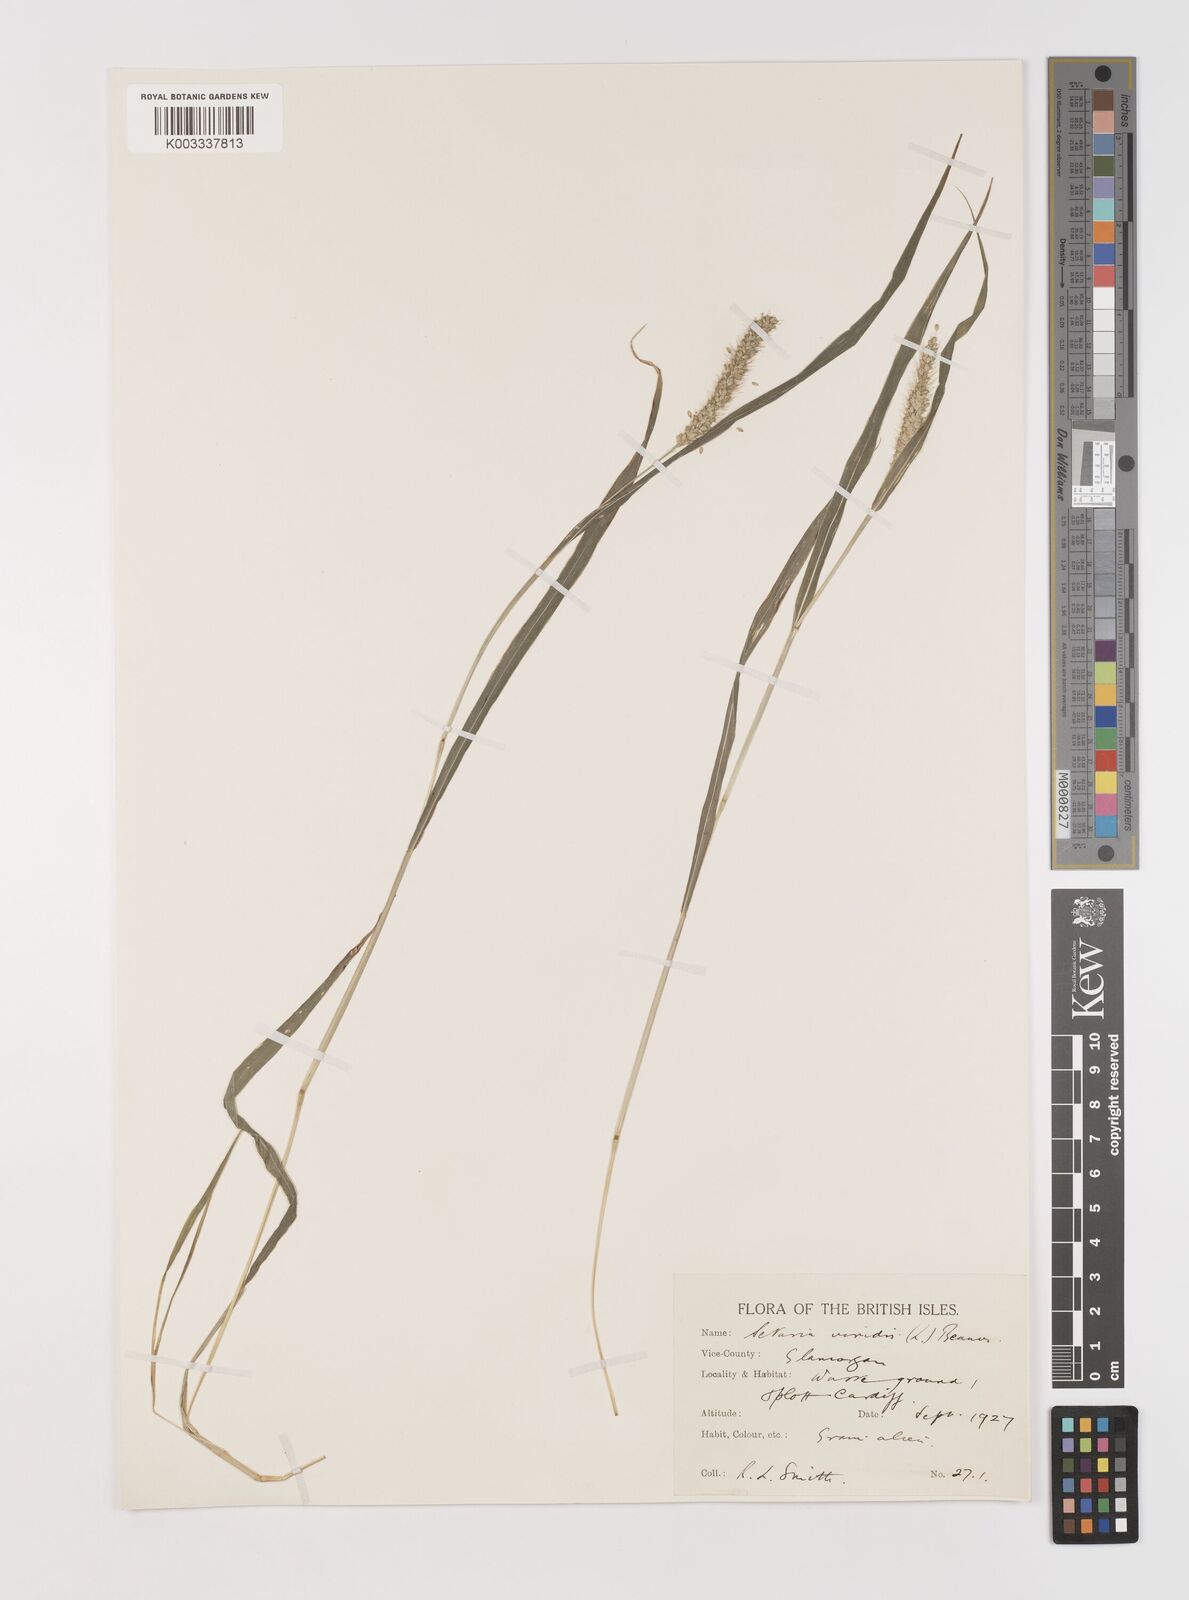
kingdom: Plantae
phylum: Tracheophyta
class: Liliopsida
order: Poales
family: Poaceae
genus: Setaria
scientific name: Setaria viridis
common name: Green bristlegrass
